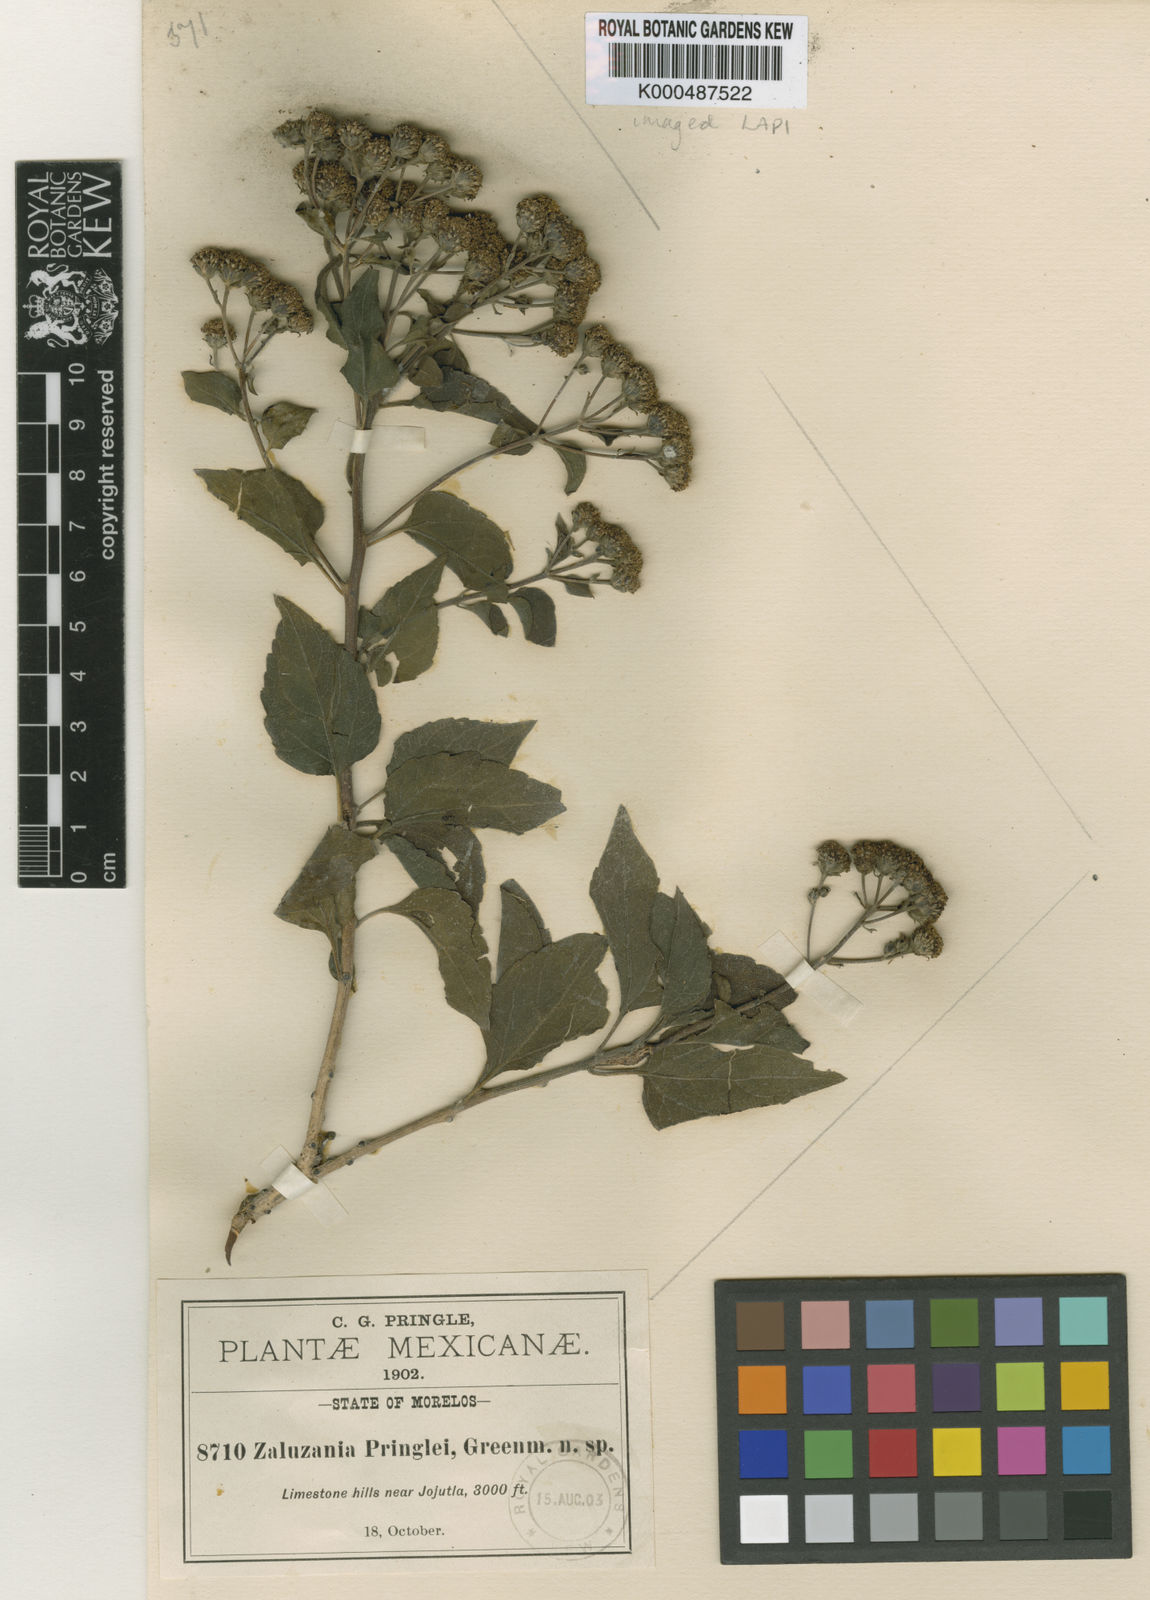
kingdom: Plantae
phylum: Tracheophyta
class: Magnoliopsida
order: Asterales
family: Asteraceae
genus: Zaluzania
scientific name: Zaluzania pringlei
